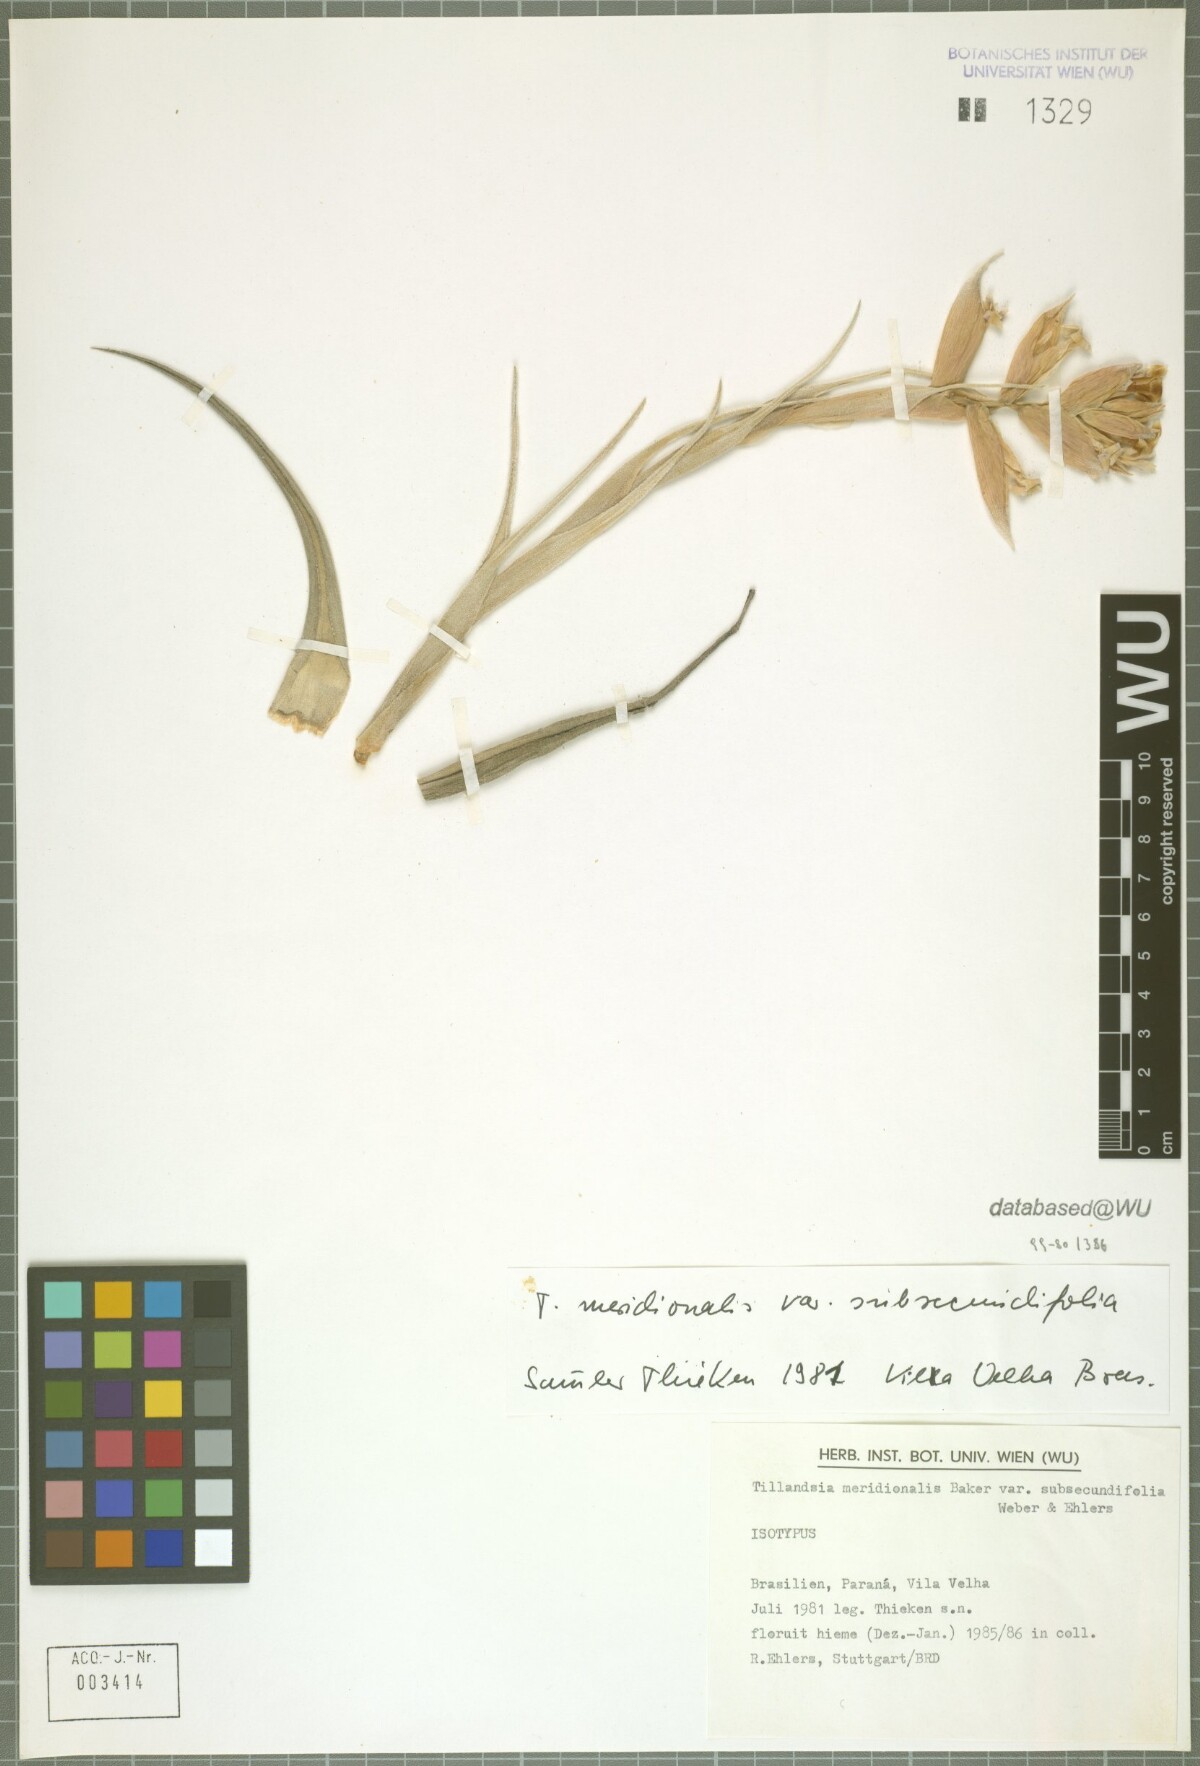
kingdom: Plantae
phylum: Tracheophyta
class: Liliopsida
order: Poales
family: Bromeliaceae
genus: Tillandsia
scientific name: Tillandsia leonamiana
